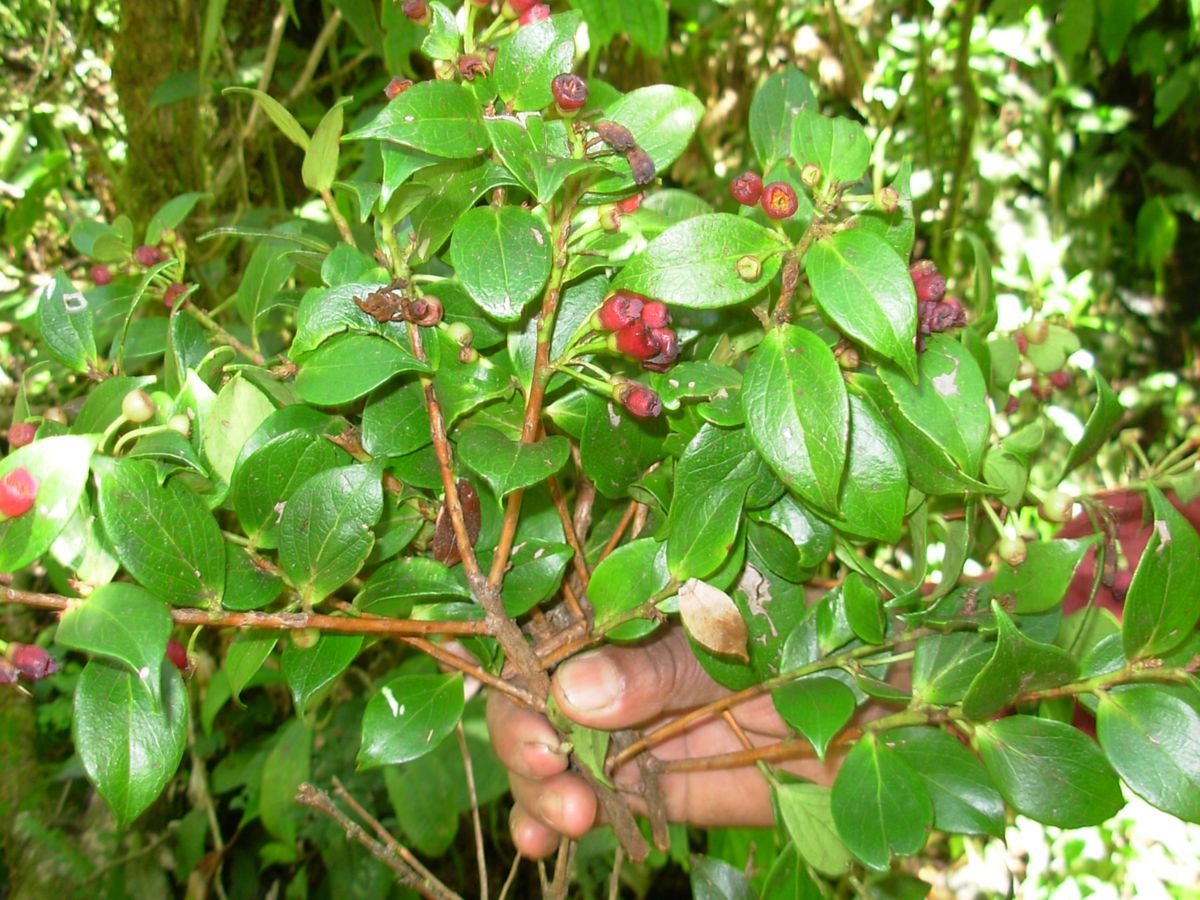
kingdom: Plantae
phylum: Tracheophyta
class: Magnoliopsida
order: Ericales
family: Ericaceae
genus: Symphysia
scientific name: Symphysia poasana
